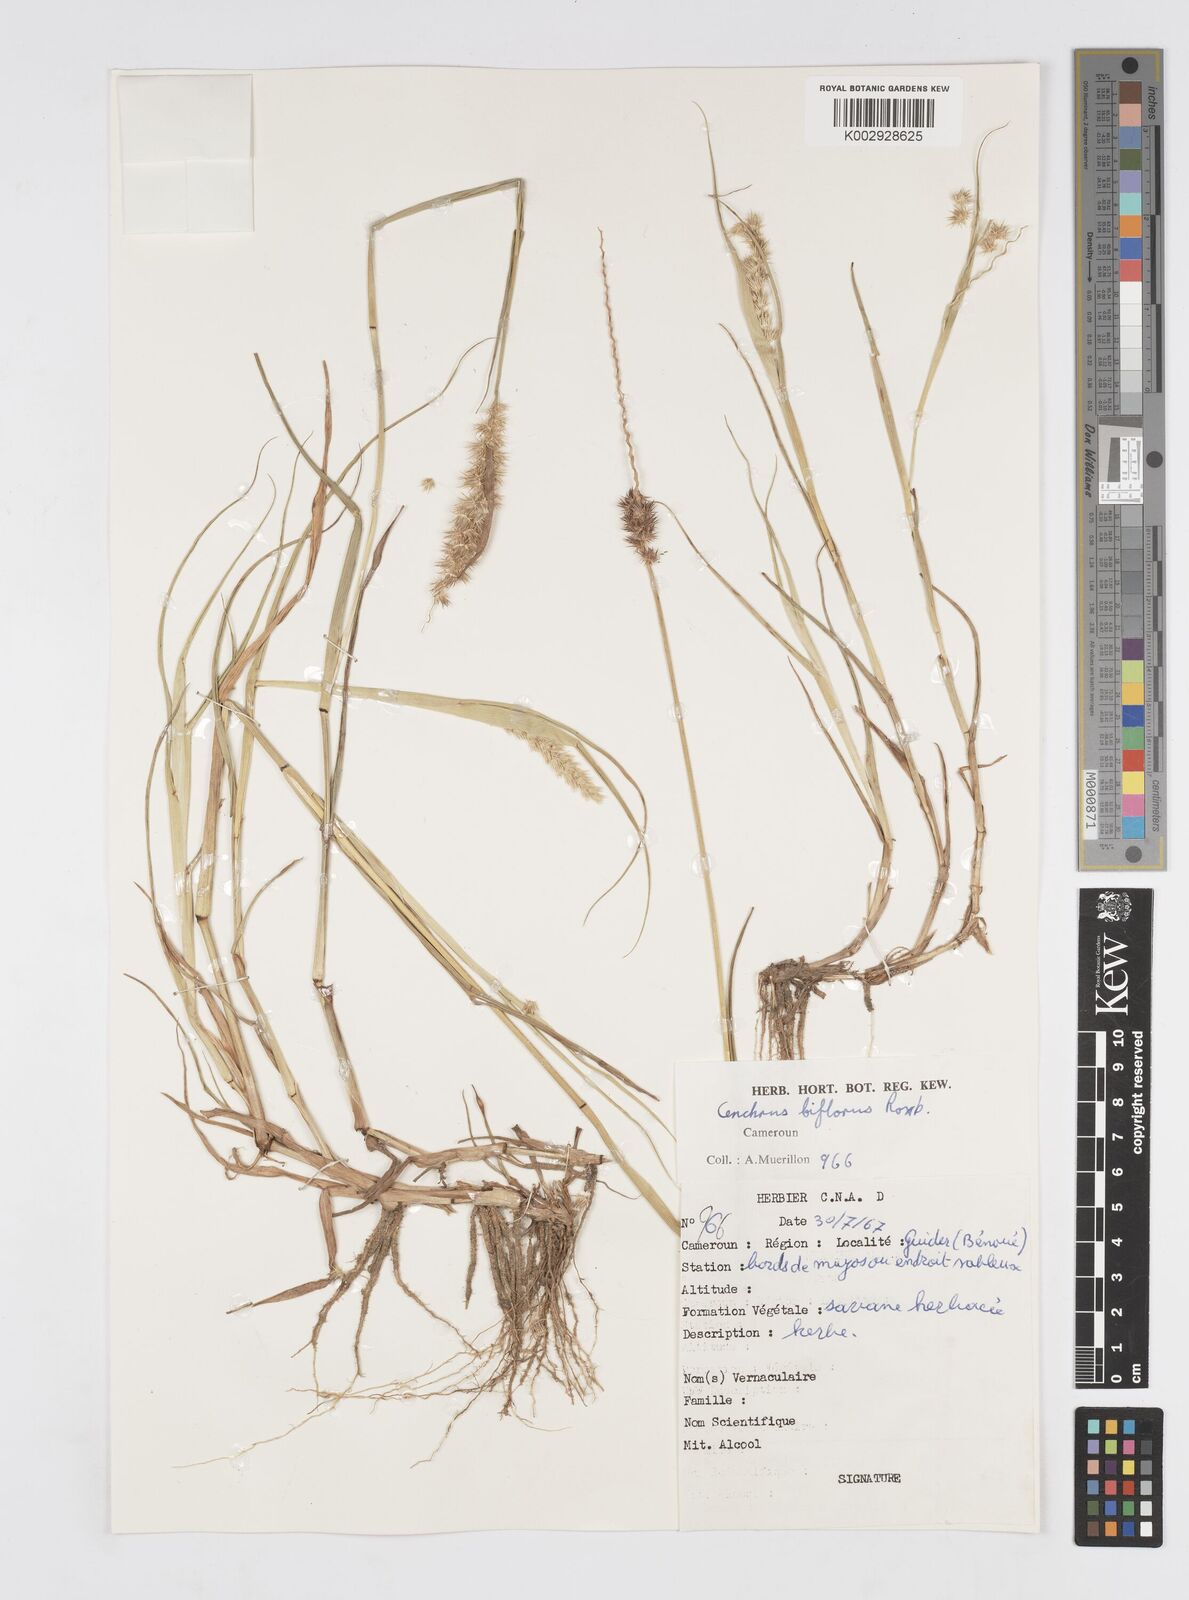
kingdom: Plantae
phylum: Tracheophyta
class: Liliopsida
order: Poales
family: Poaceae
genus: Cenchrus
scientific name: Cenchrus biflorus
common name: Indian sandbur
